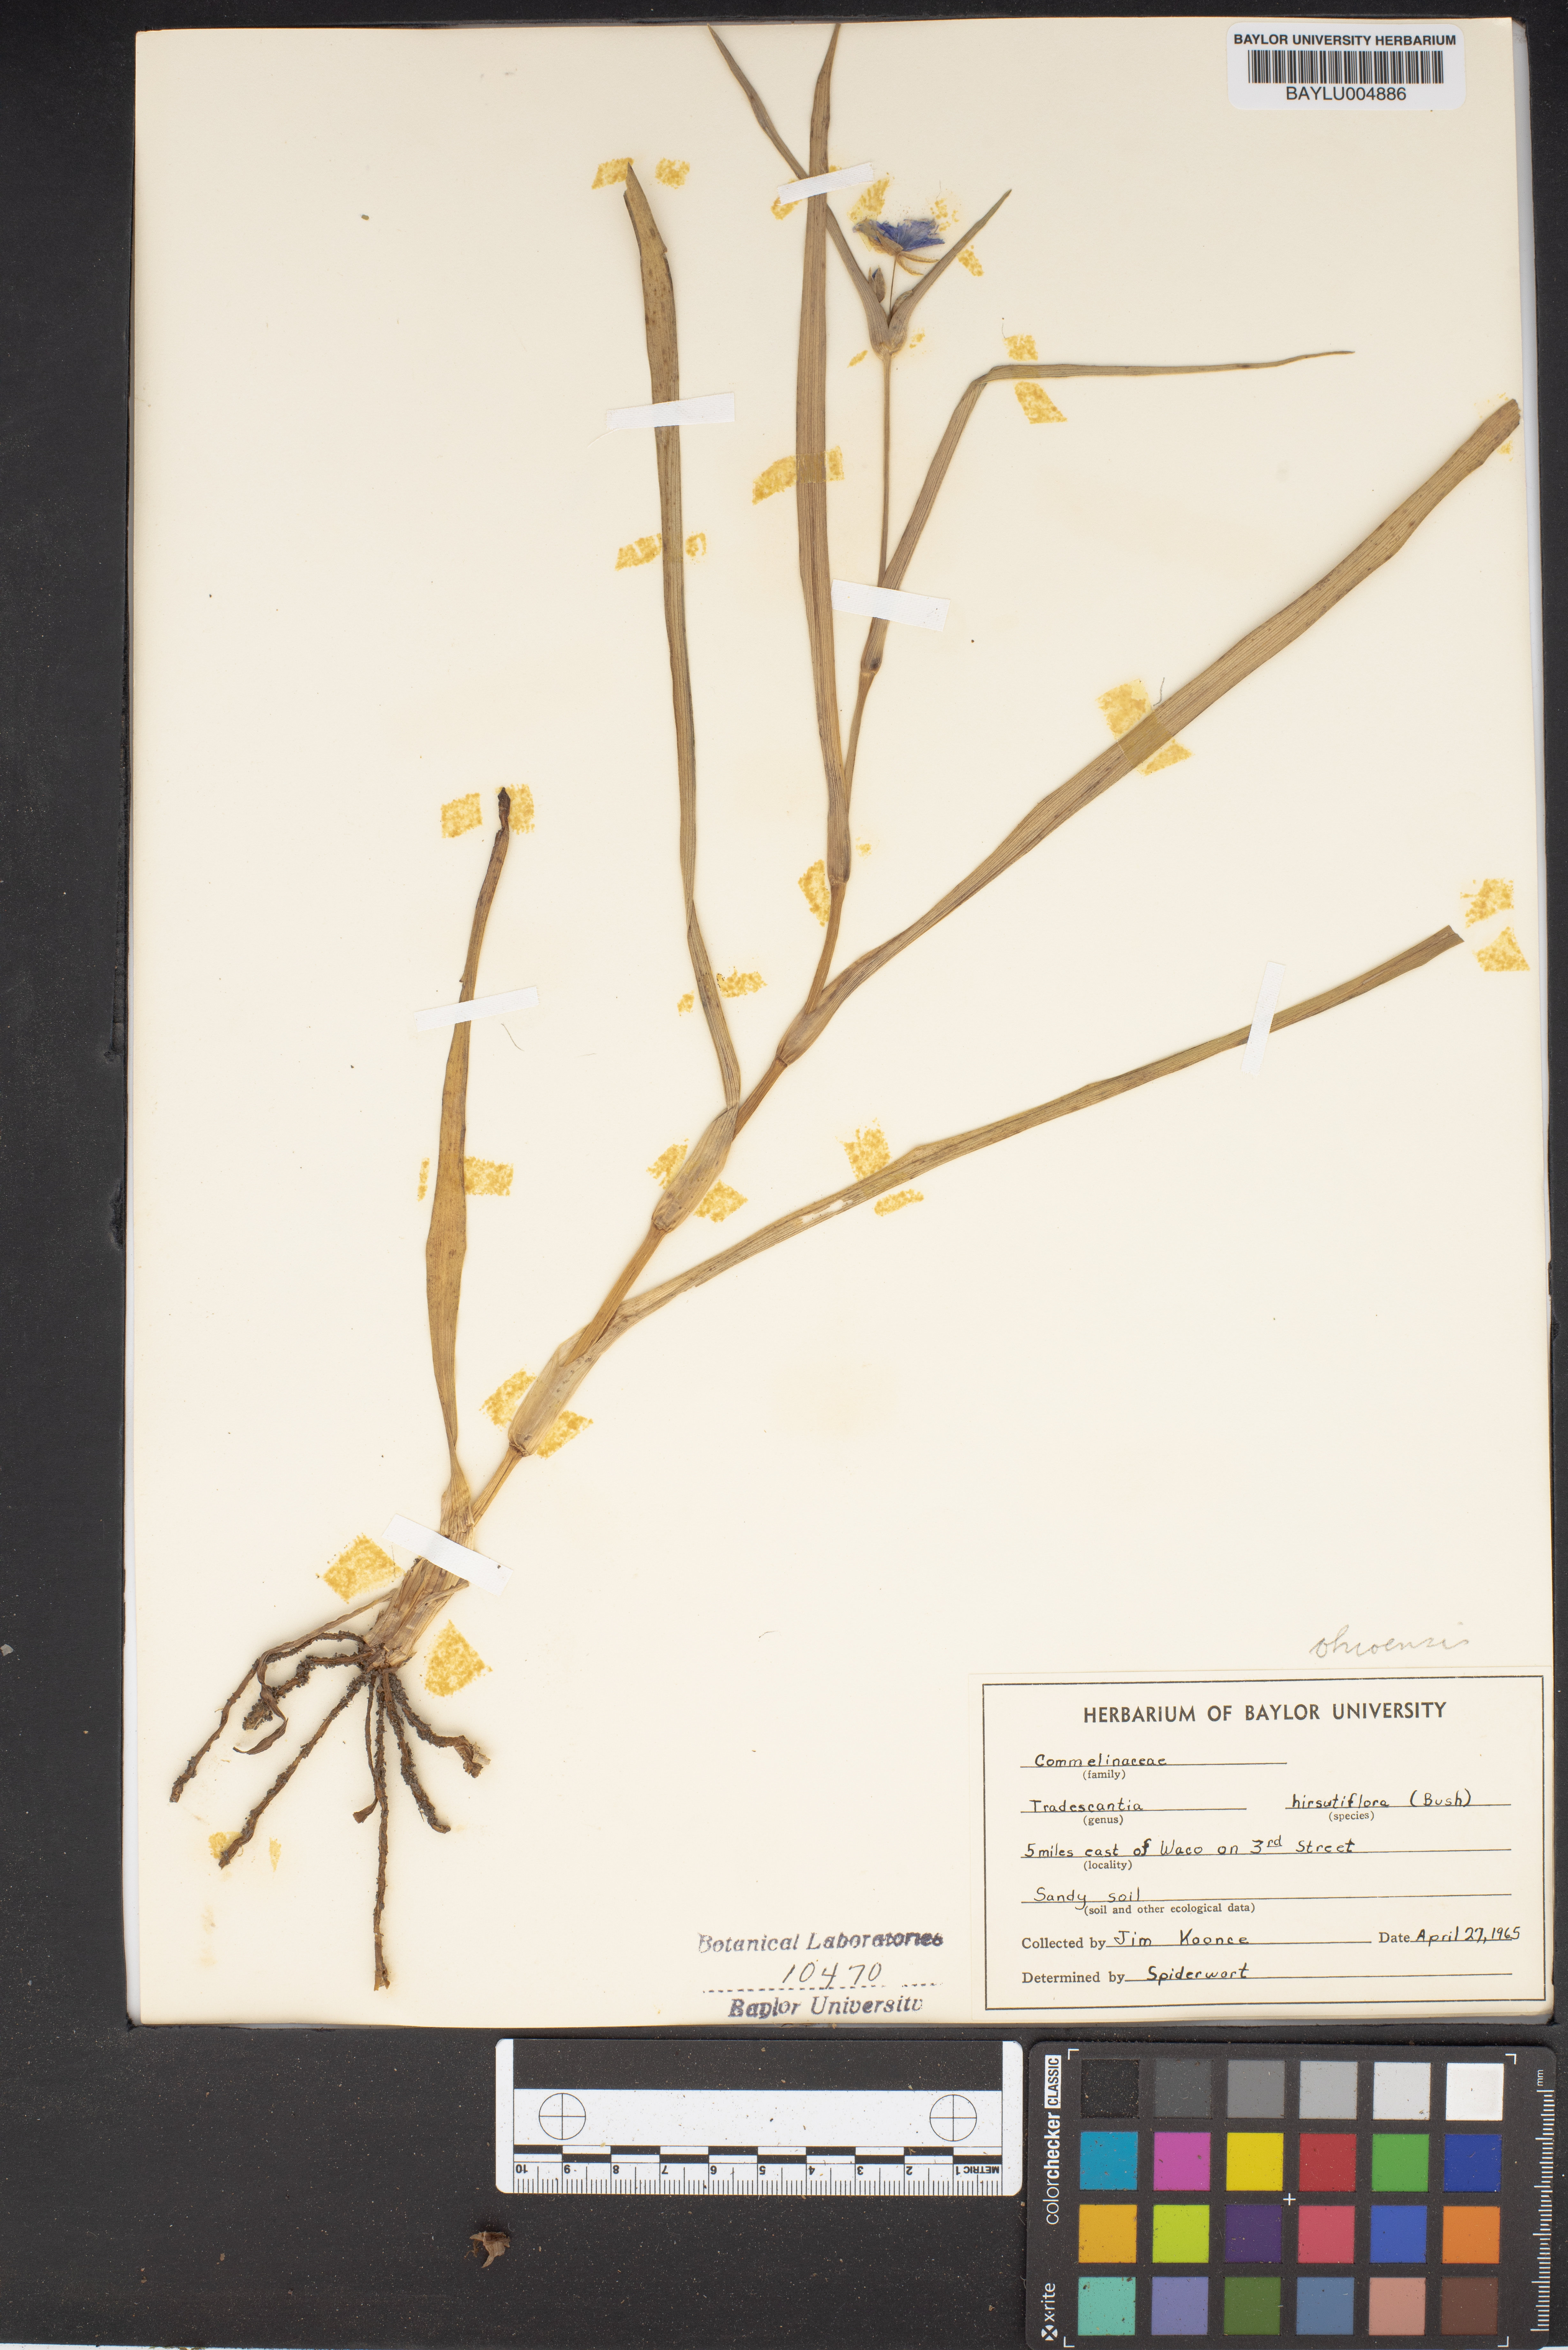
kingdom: Plantae
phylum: Tracheophyta
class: Liliopsida
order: Commelinales
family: Commelinaceae
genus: Tradescantia
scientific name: Tradescantia hirsutiflora
